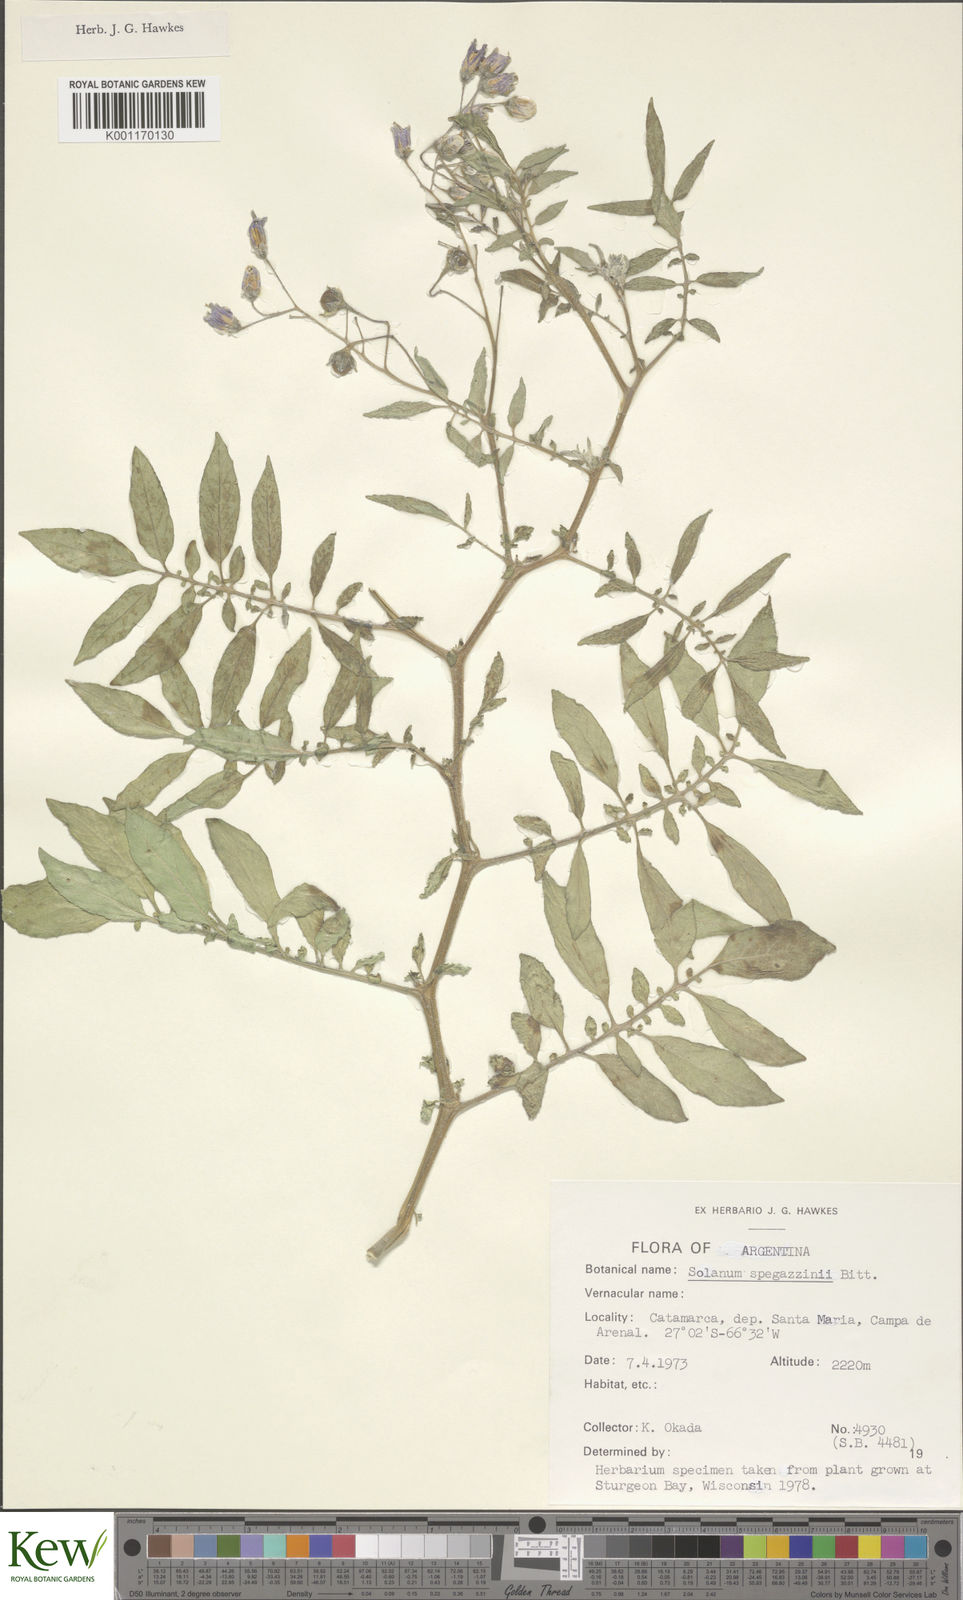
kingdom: Plantae
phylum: Tracheophyta
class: Magnoliopsida
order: Solanales
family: Solanaceae
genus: Solanum
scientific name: Solanum brevicaule
